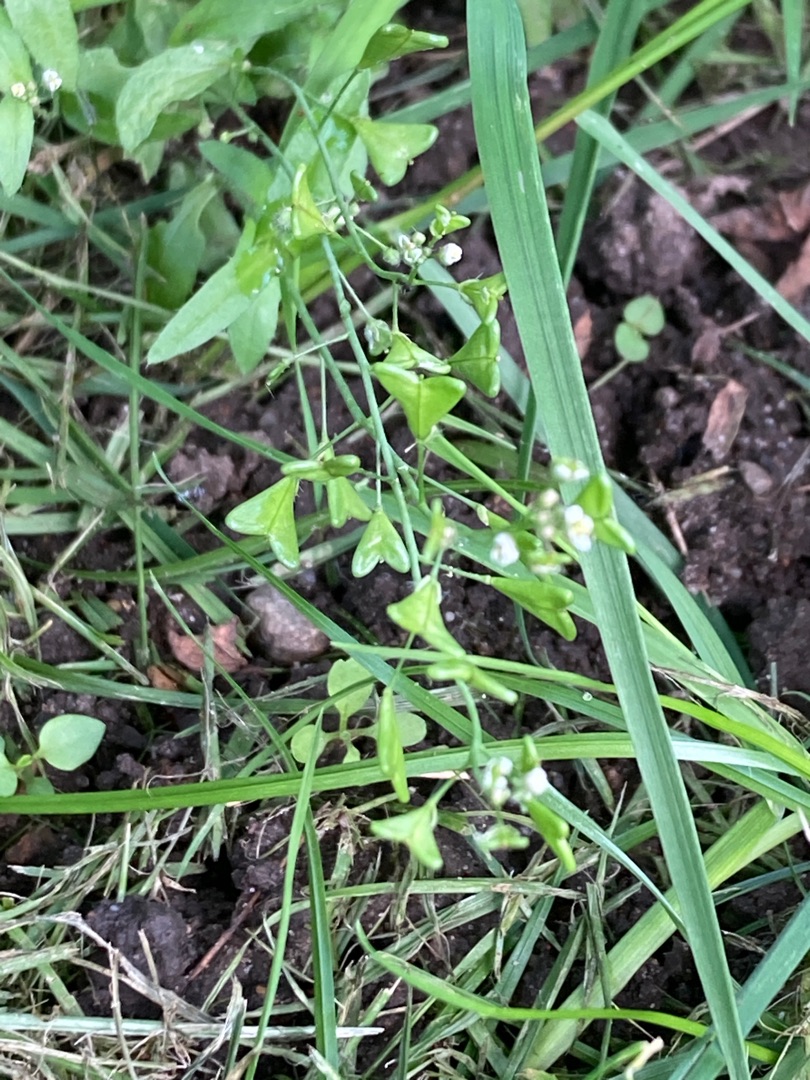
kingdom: Plantae
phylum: Tracheophyta
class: Magnoliopsida
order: Brassicales
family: Brassicaceae
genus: Capsella
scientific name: Capsella bursa-pastoris
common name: Hyrdetaske
